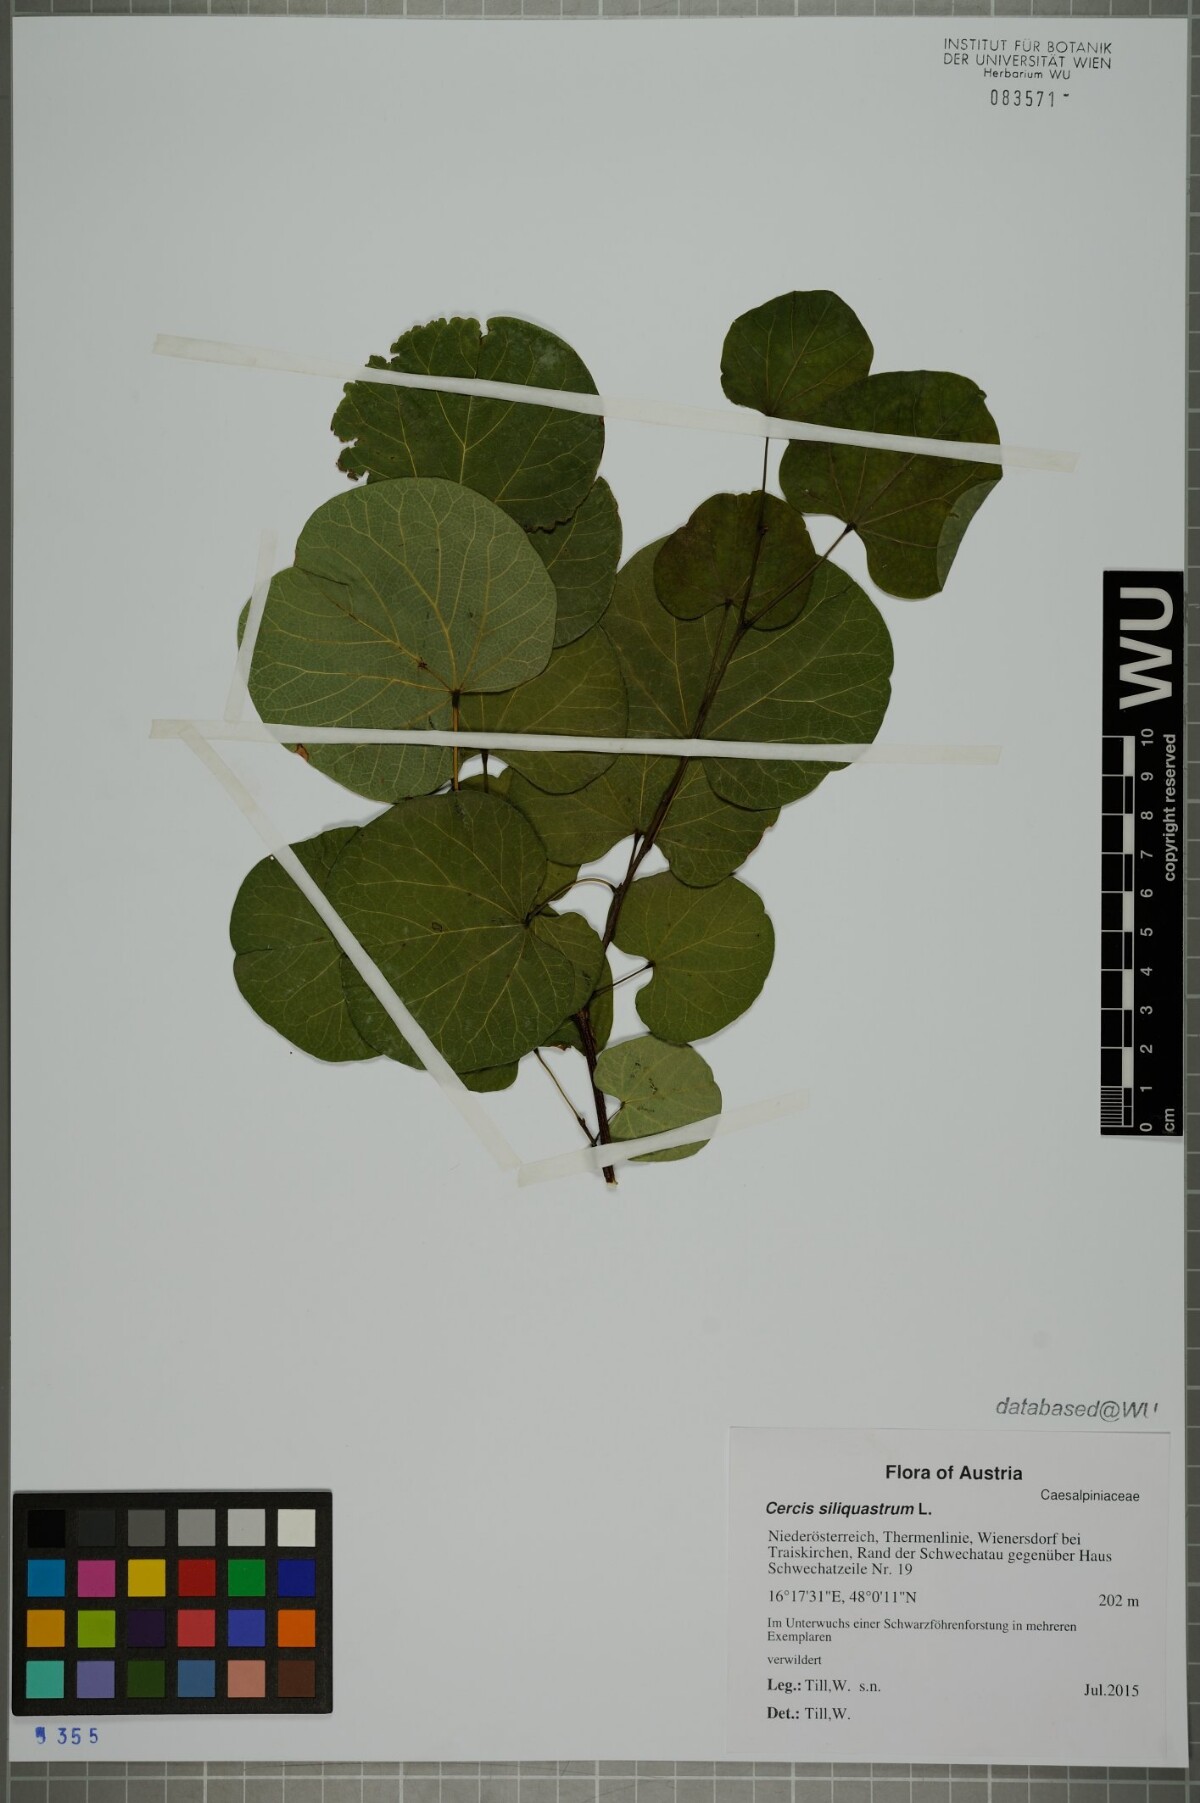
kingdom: Plantae
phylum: Tracheophyta
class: Magnoliopsida
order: Fabales
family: Fabaceae
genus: Cercis
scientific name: Cercis siliquastrum
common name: Judas tree
